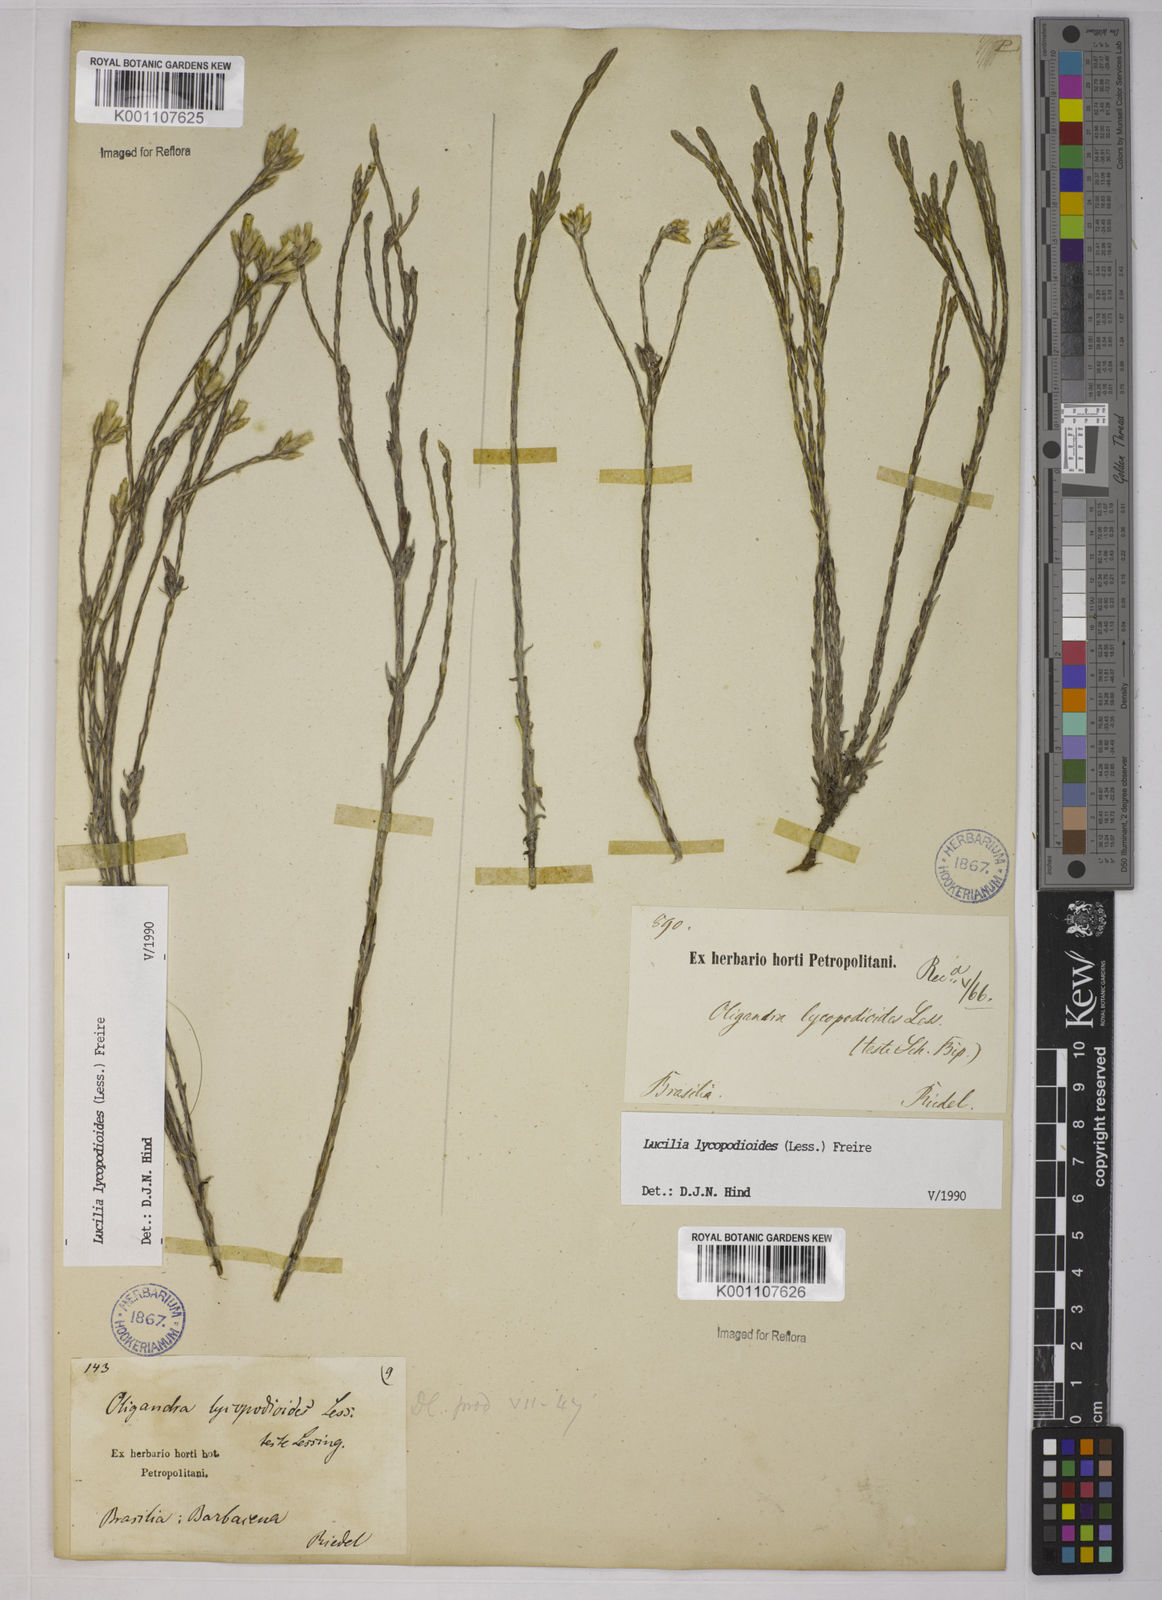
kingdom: Plantae
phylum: Tracheophyta
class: Magnoliopsida
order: Asterales
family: Asteraceae
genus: Lucilia
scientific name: Lucilia lycopodioides
